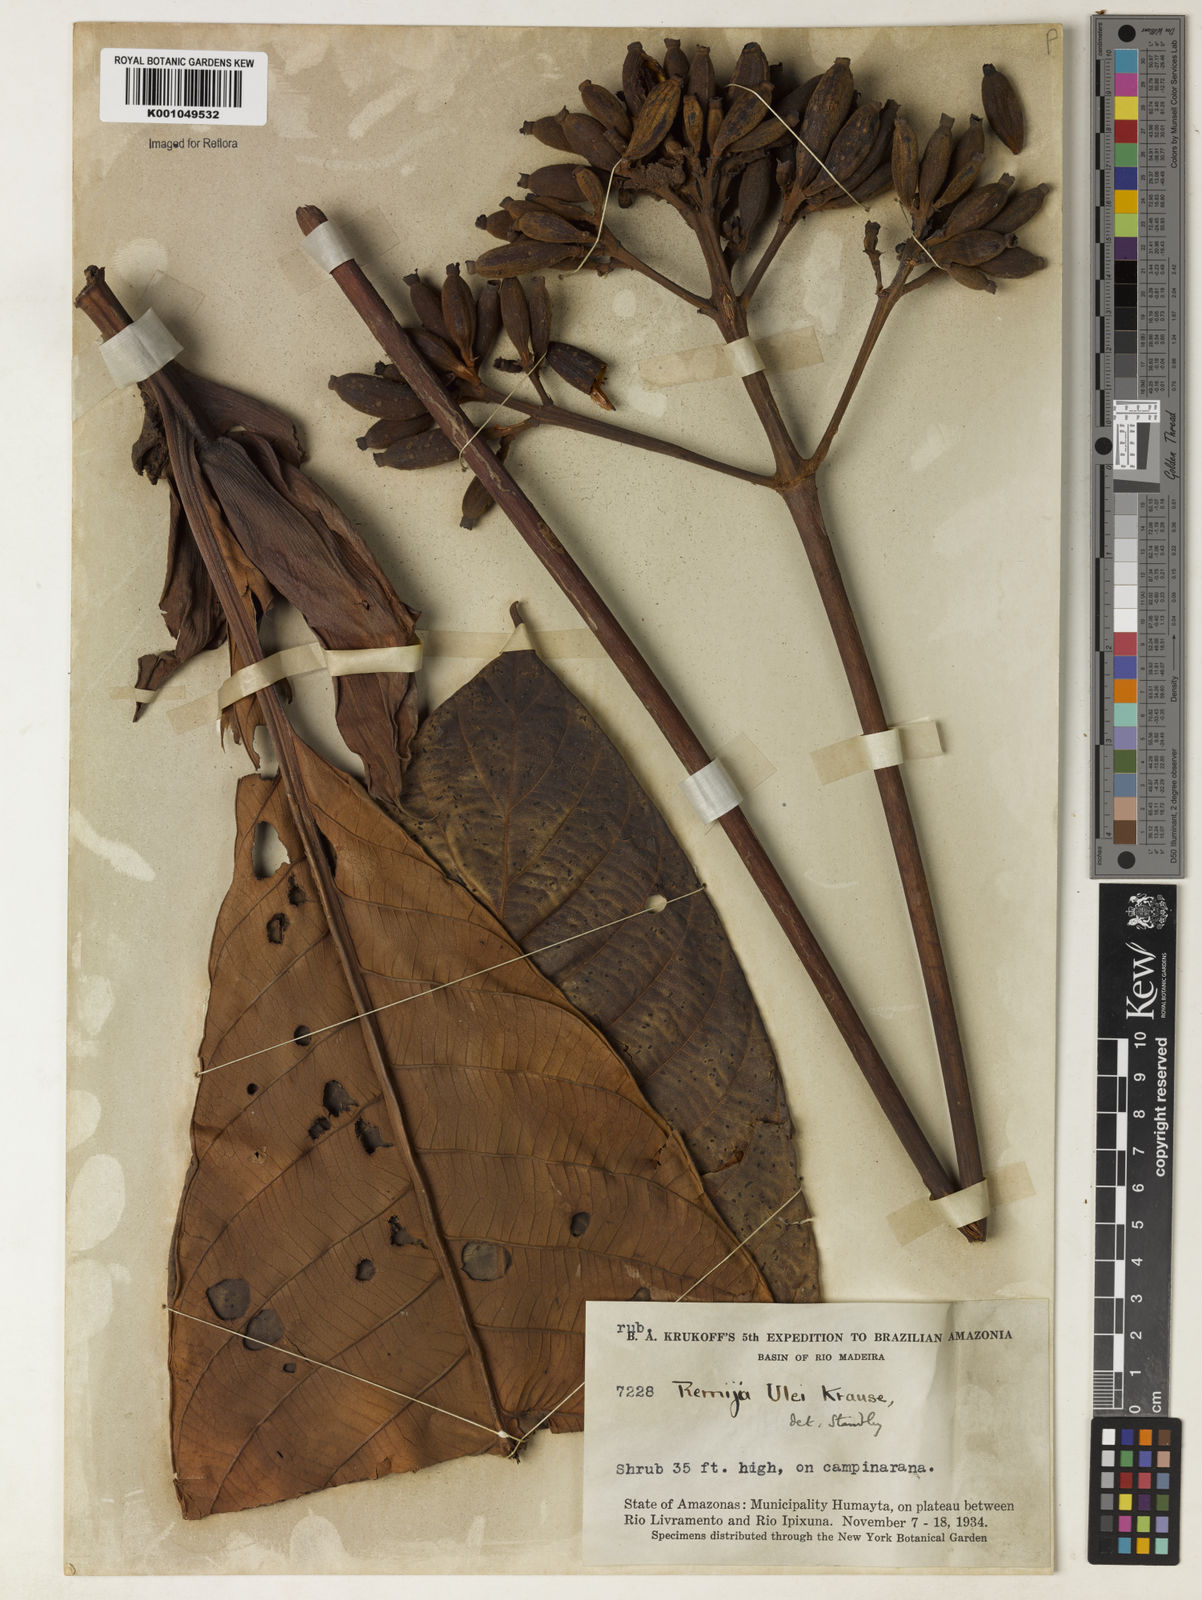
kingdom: Plantae
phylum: Tracheophyta
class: Magnoliopsida
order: Gentianales
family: Rubiaceae
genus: Remijia
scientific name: Remijia ulei
